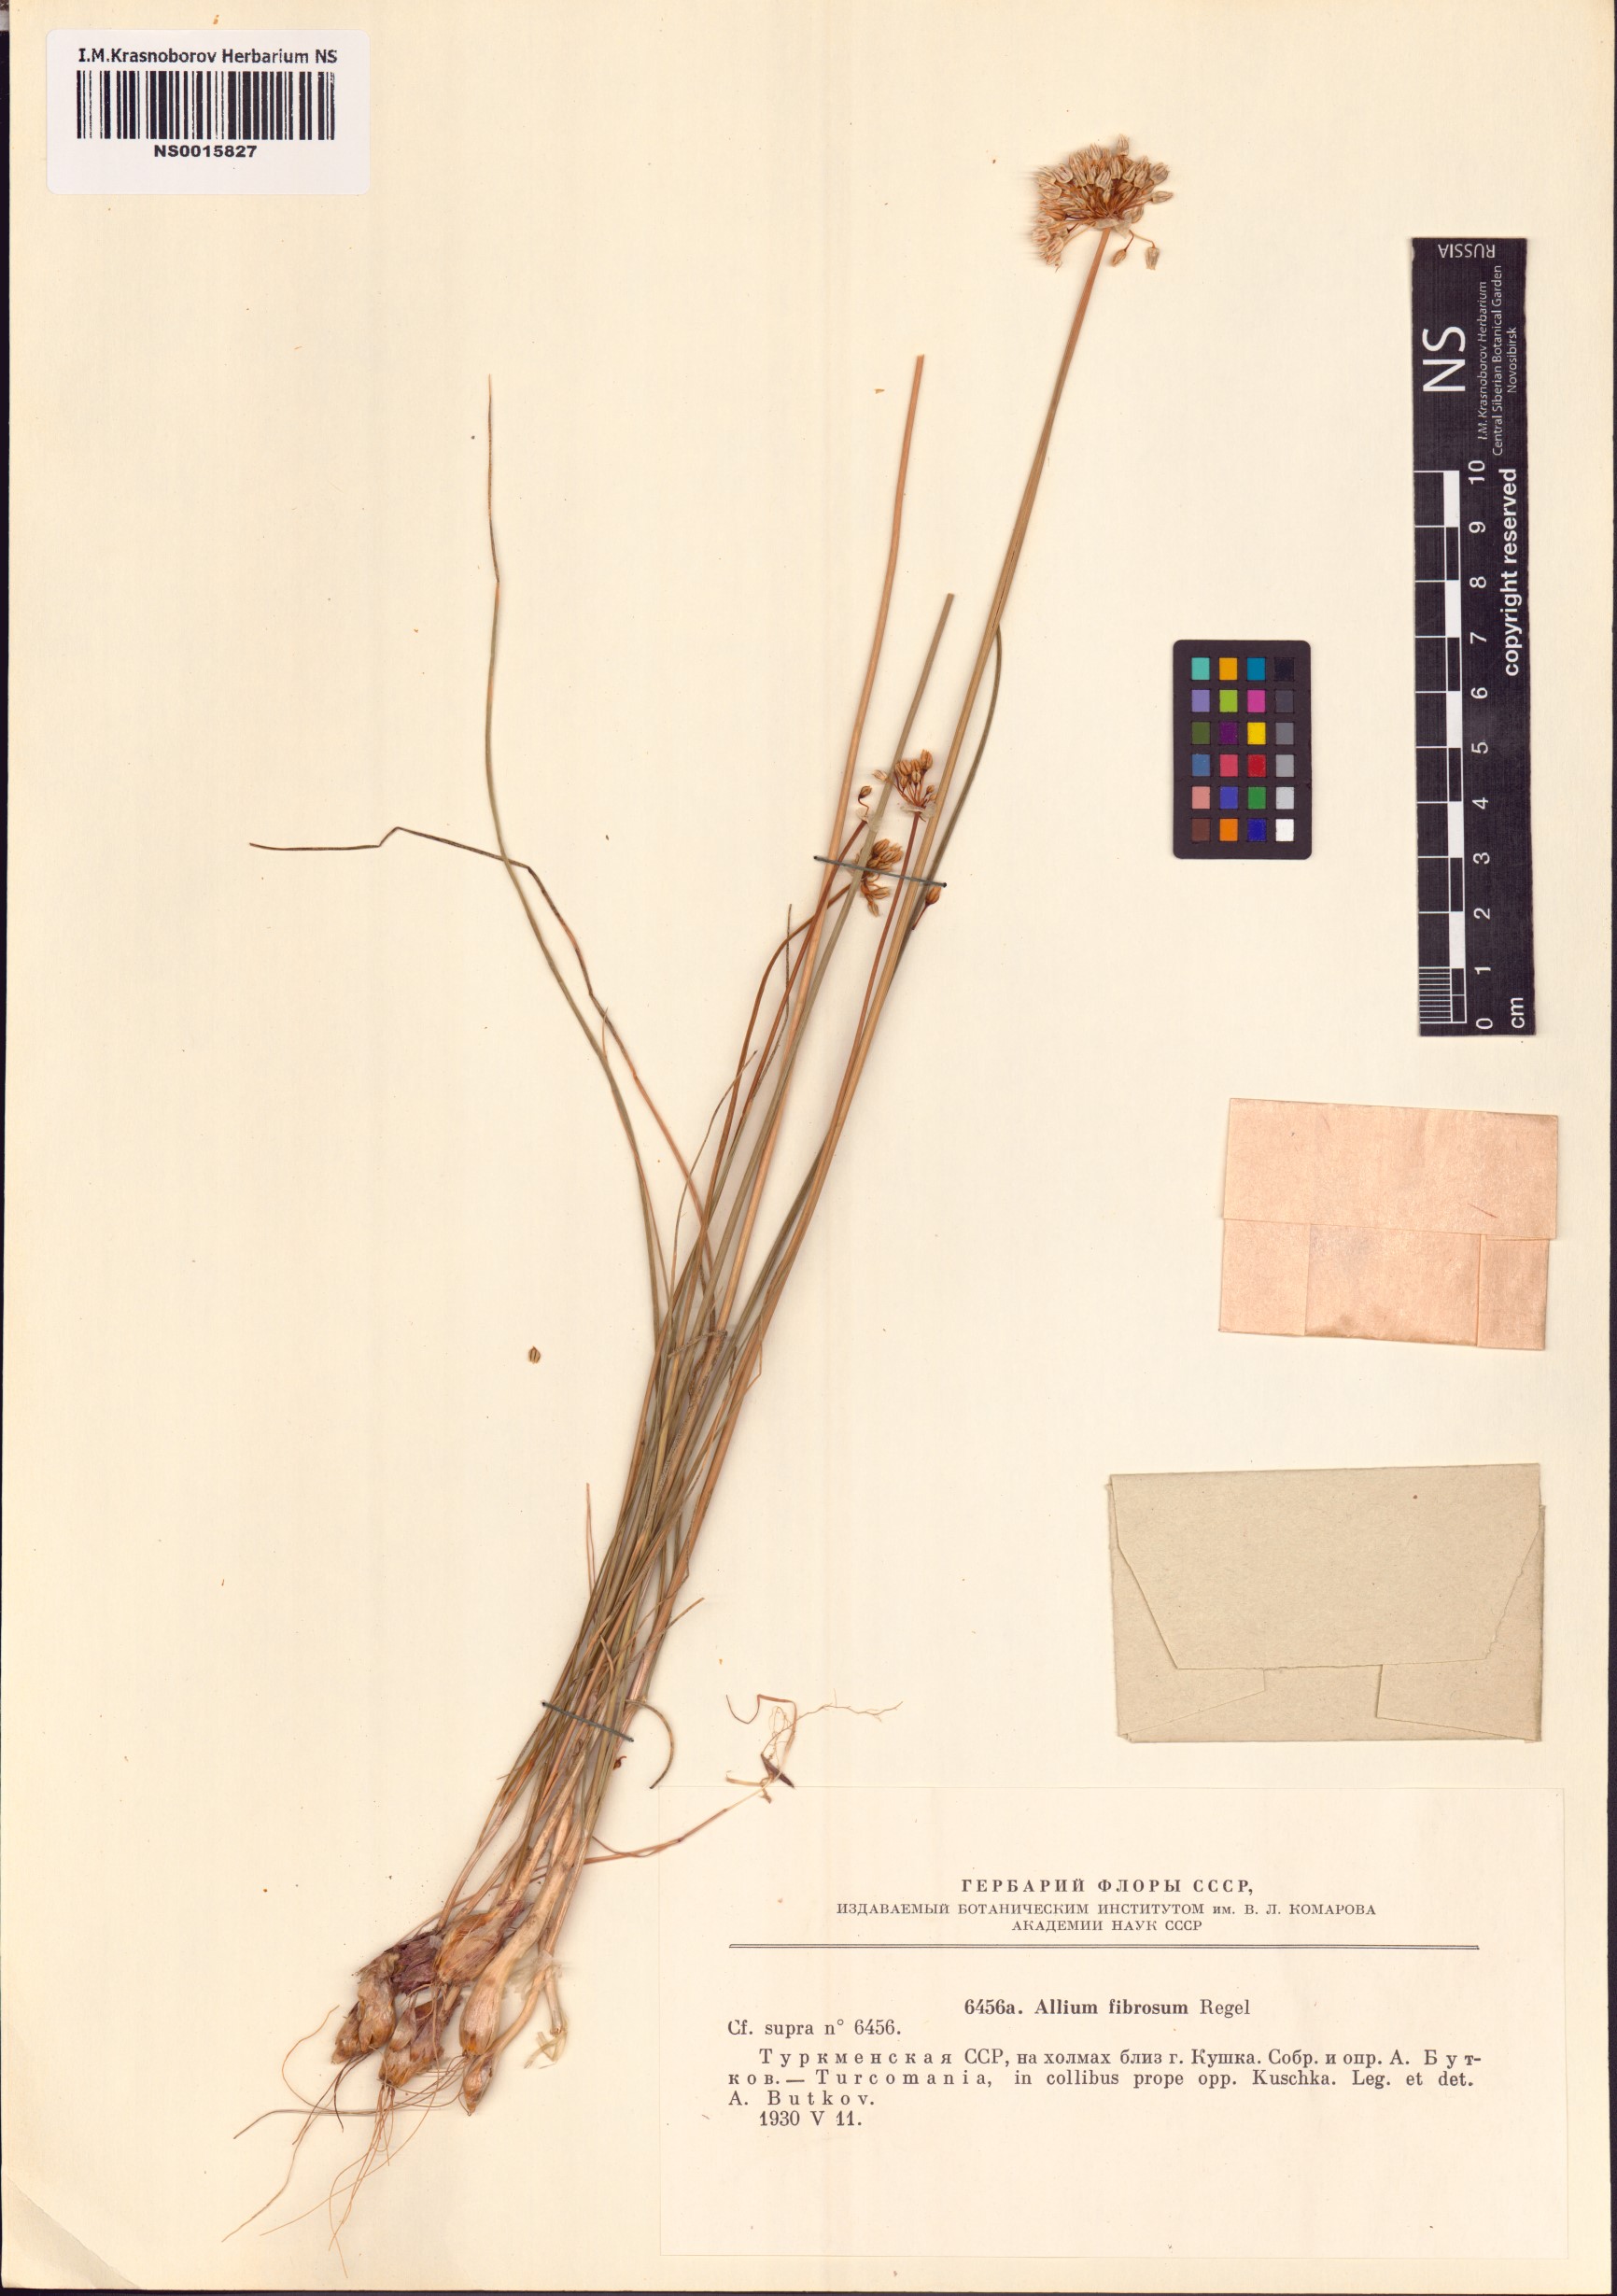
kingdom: Plantae
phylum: Tracheophyta
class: Liliopsida
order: Asparagales
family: Amaryllidaceae
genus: Allium
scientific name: Allium leucosphaerum
